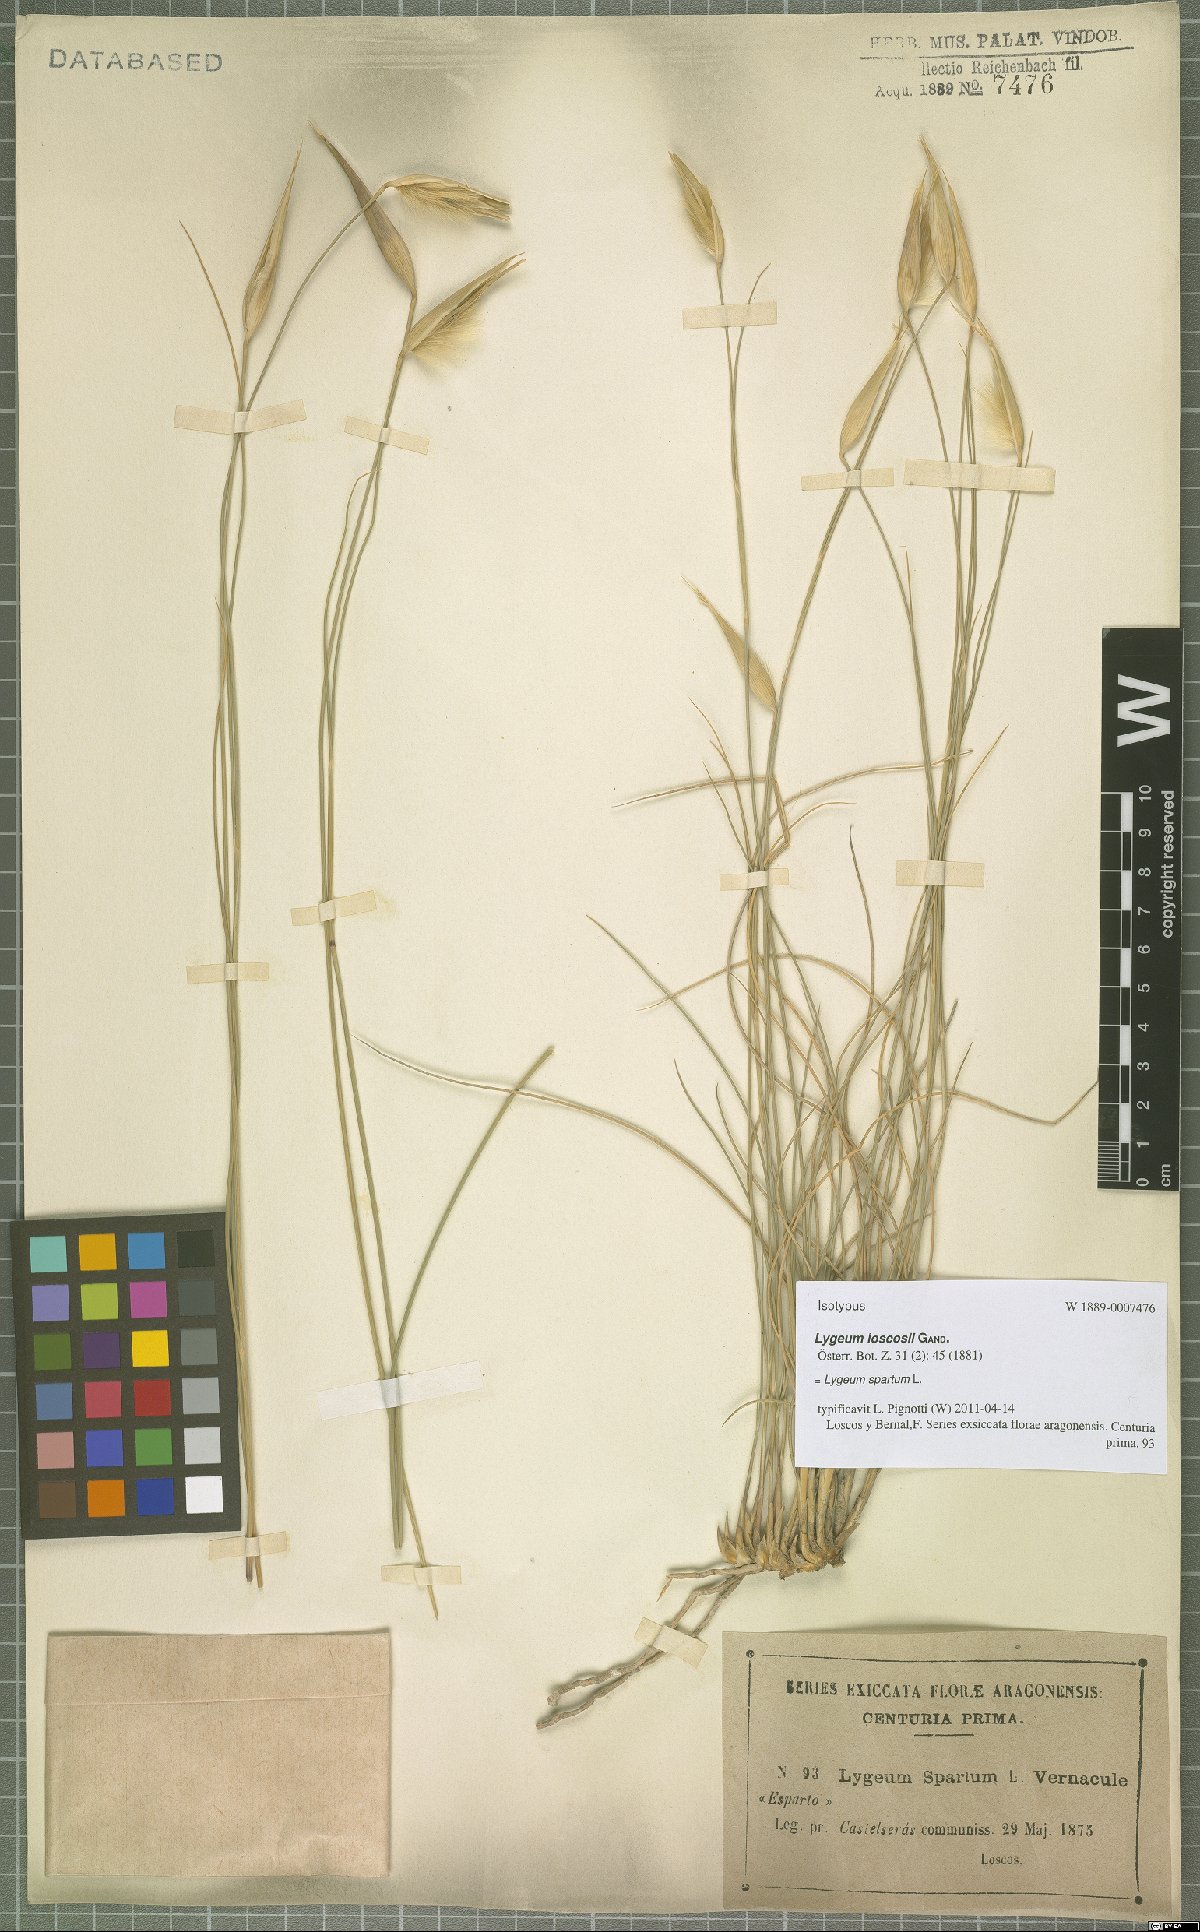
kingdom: Plantae
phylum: Tracheophyta
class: Liliopsida
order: Poales
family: Poaceae
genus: Lygeum
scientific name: Lygeum spartum
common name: Albardine
